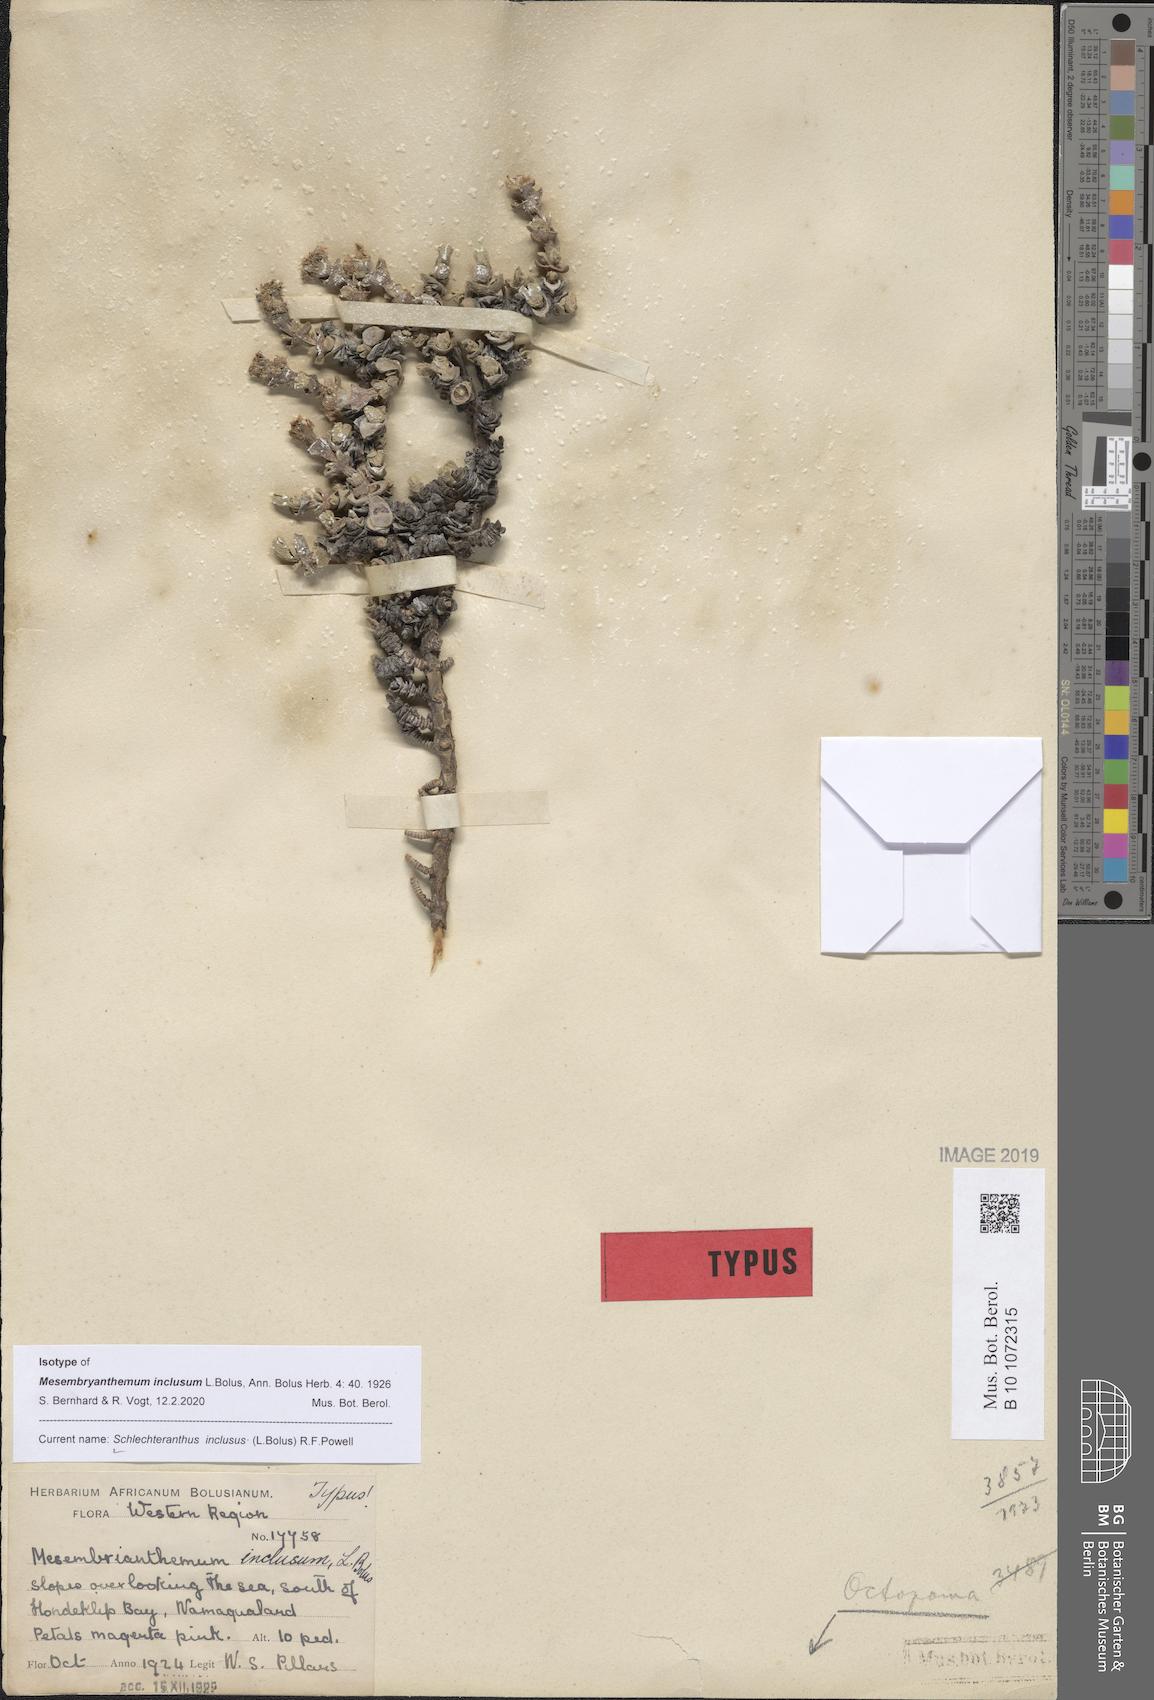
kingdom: Plantae
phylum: Tracheophyta
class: Magnoliopsida
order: Caryophyllales
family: Aizoaceae
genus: Schlechteranthus
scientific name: Schlechteranthus inclusus
